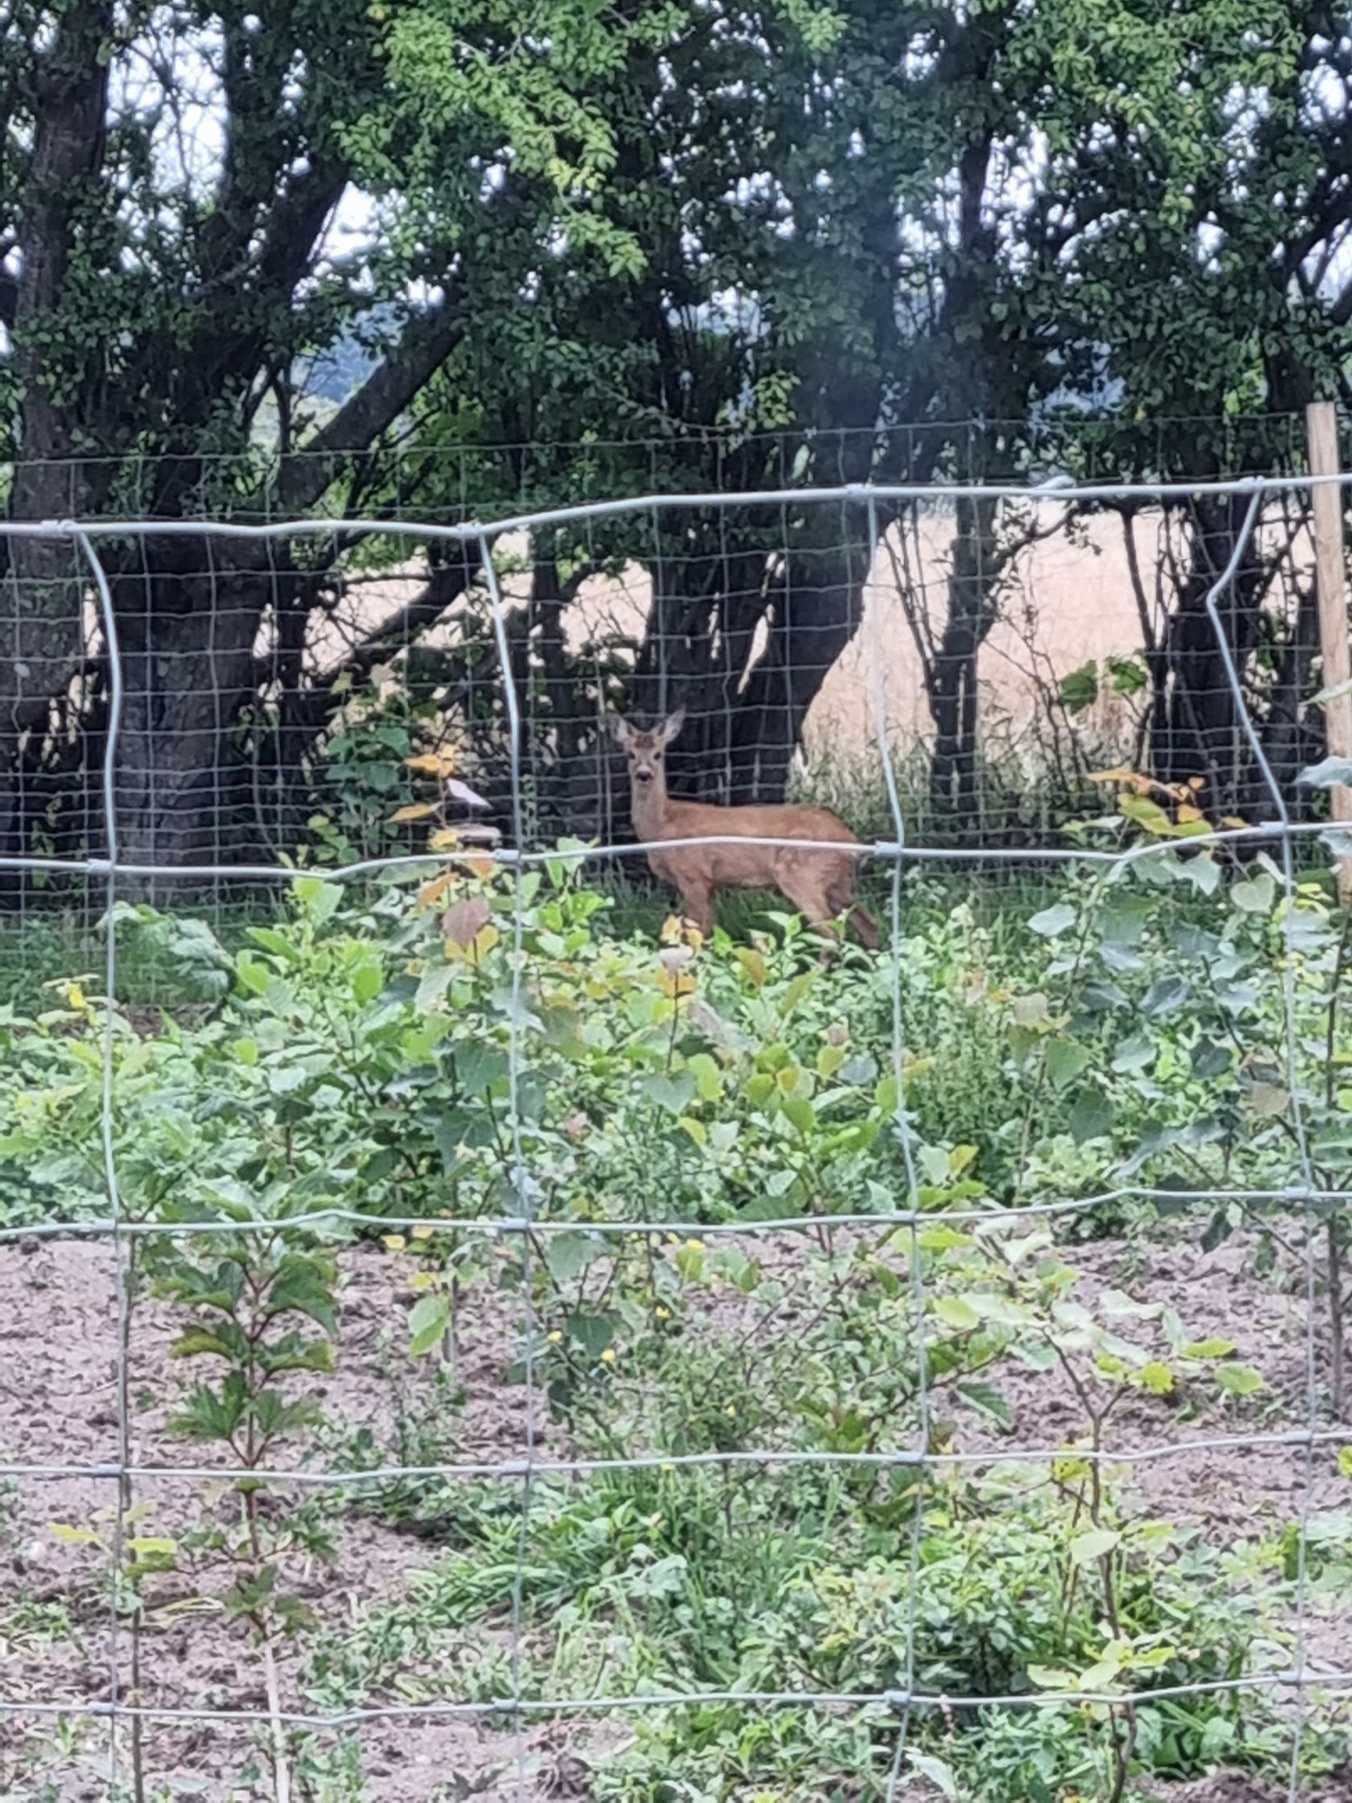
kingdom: Animalia
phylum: Chordata
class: Mammalia
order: Artiodactyla
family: Cervidae
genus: Capreolus
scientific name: Capreolus capreolus
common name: Rådyr
